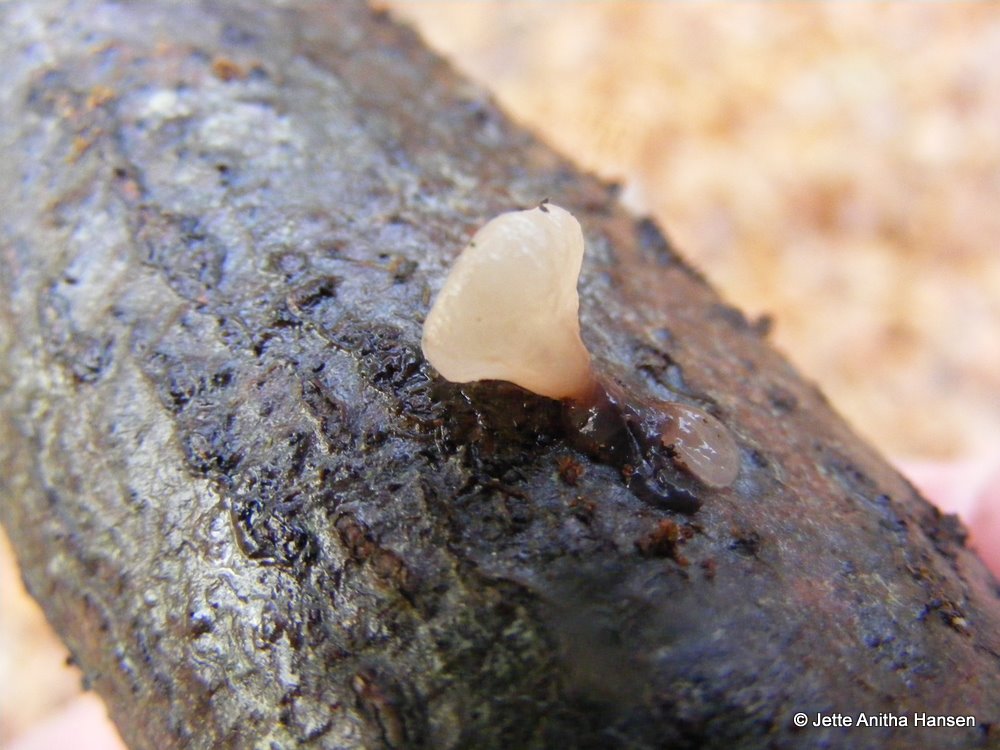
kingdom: Fungi
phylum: Ascomycota
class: Leotiomycetes
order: Helotiales
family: Gelatinodiscaceae
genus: Neobulgaria
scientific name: Neobulgaria pura
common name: bleg bævreskive
